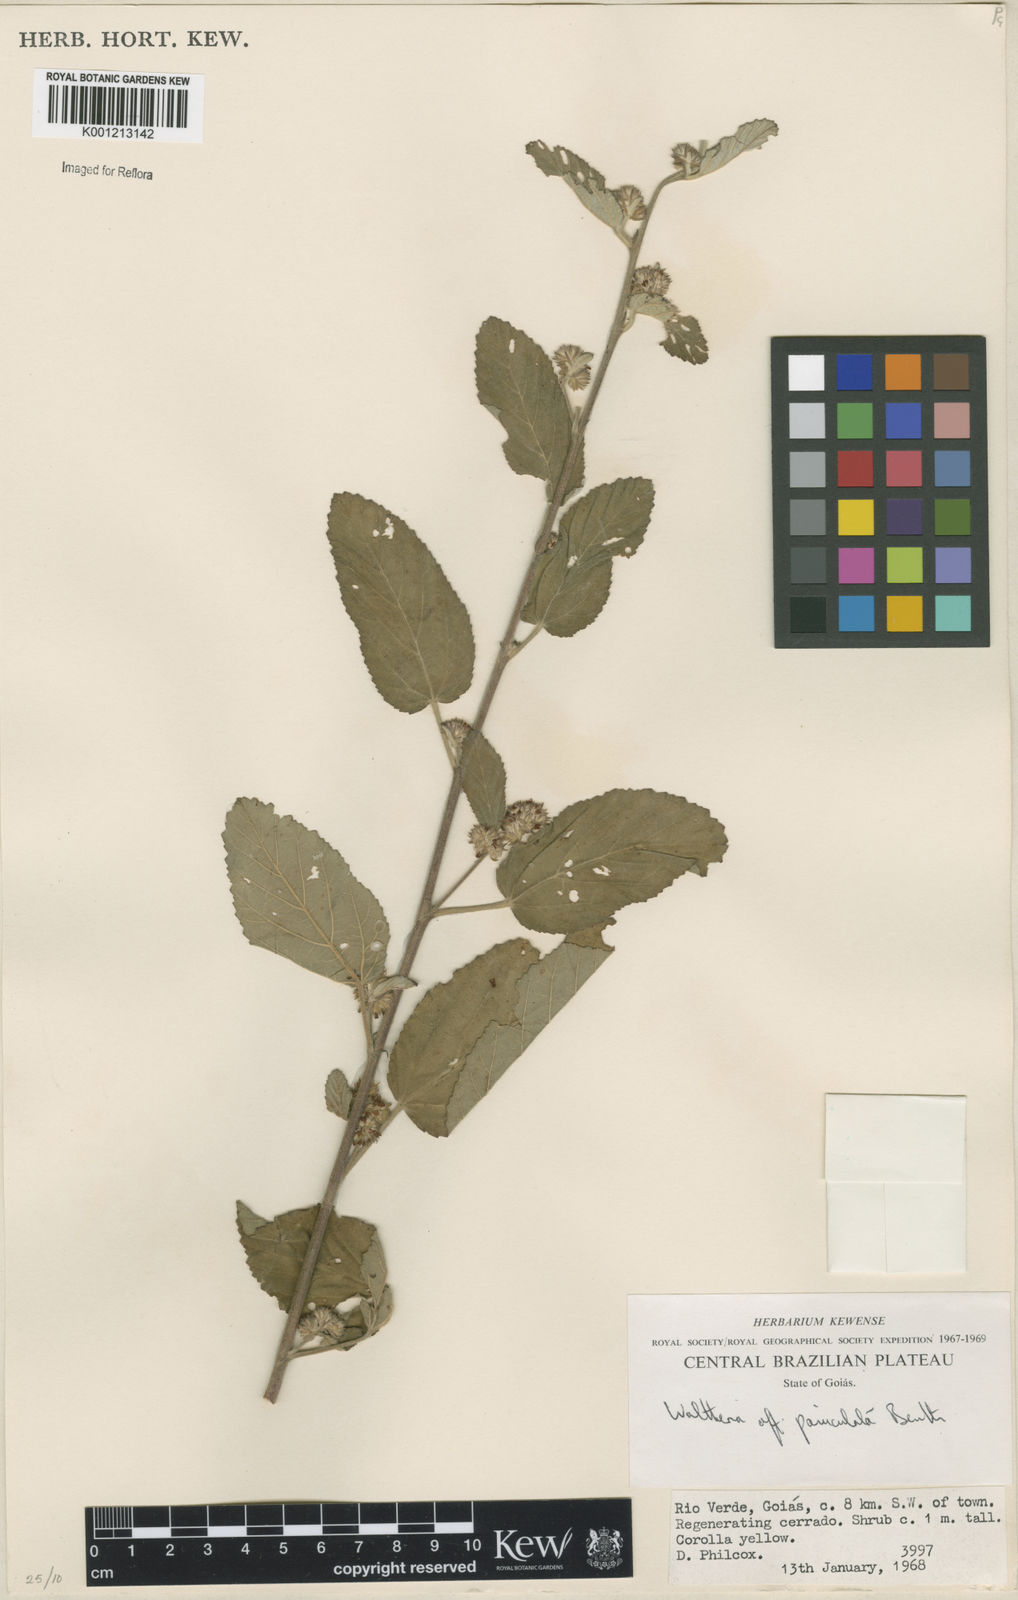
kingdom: Plantae
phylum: Tracheophyta
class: Magnoliopsida
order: Malvales
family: Malvaceae
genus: Waltheria
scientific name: Waltheria indica
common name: Leather-coat
